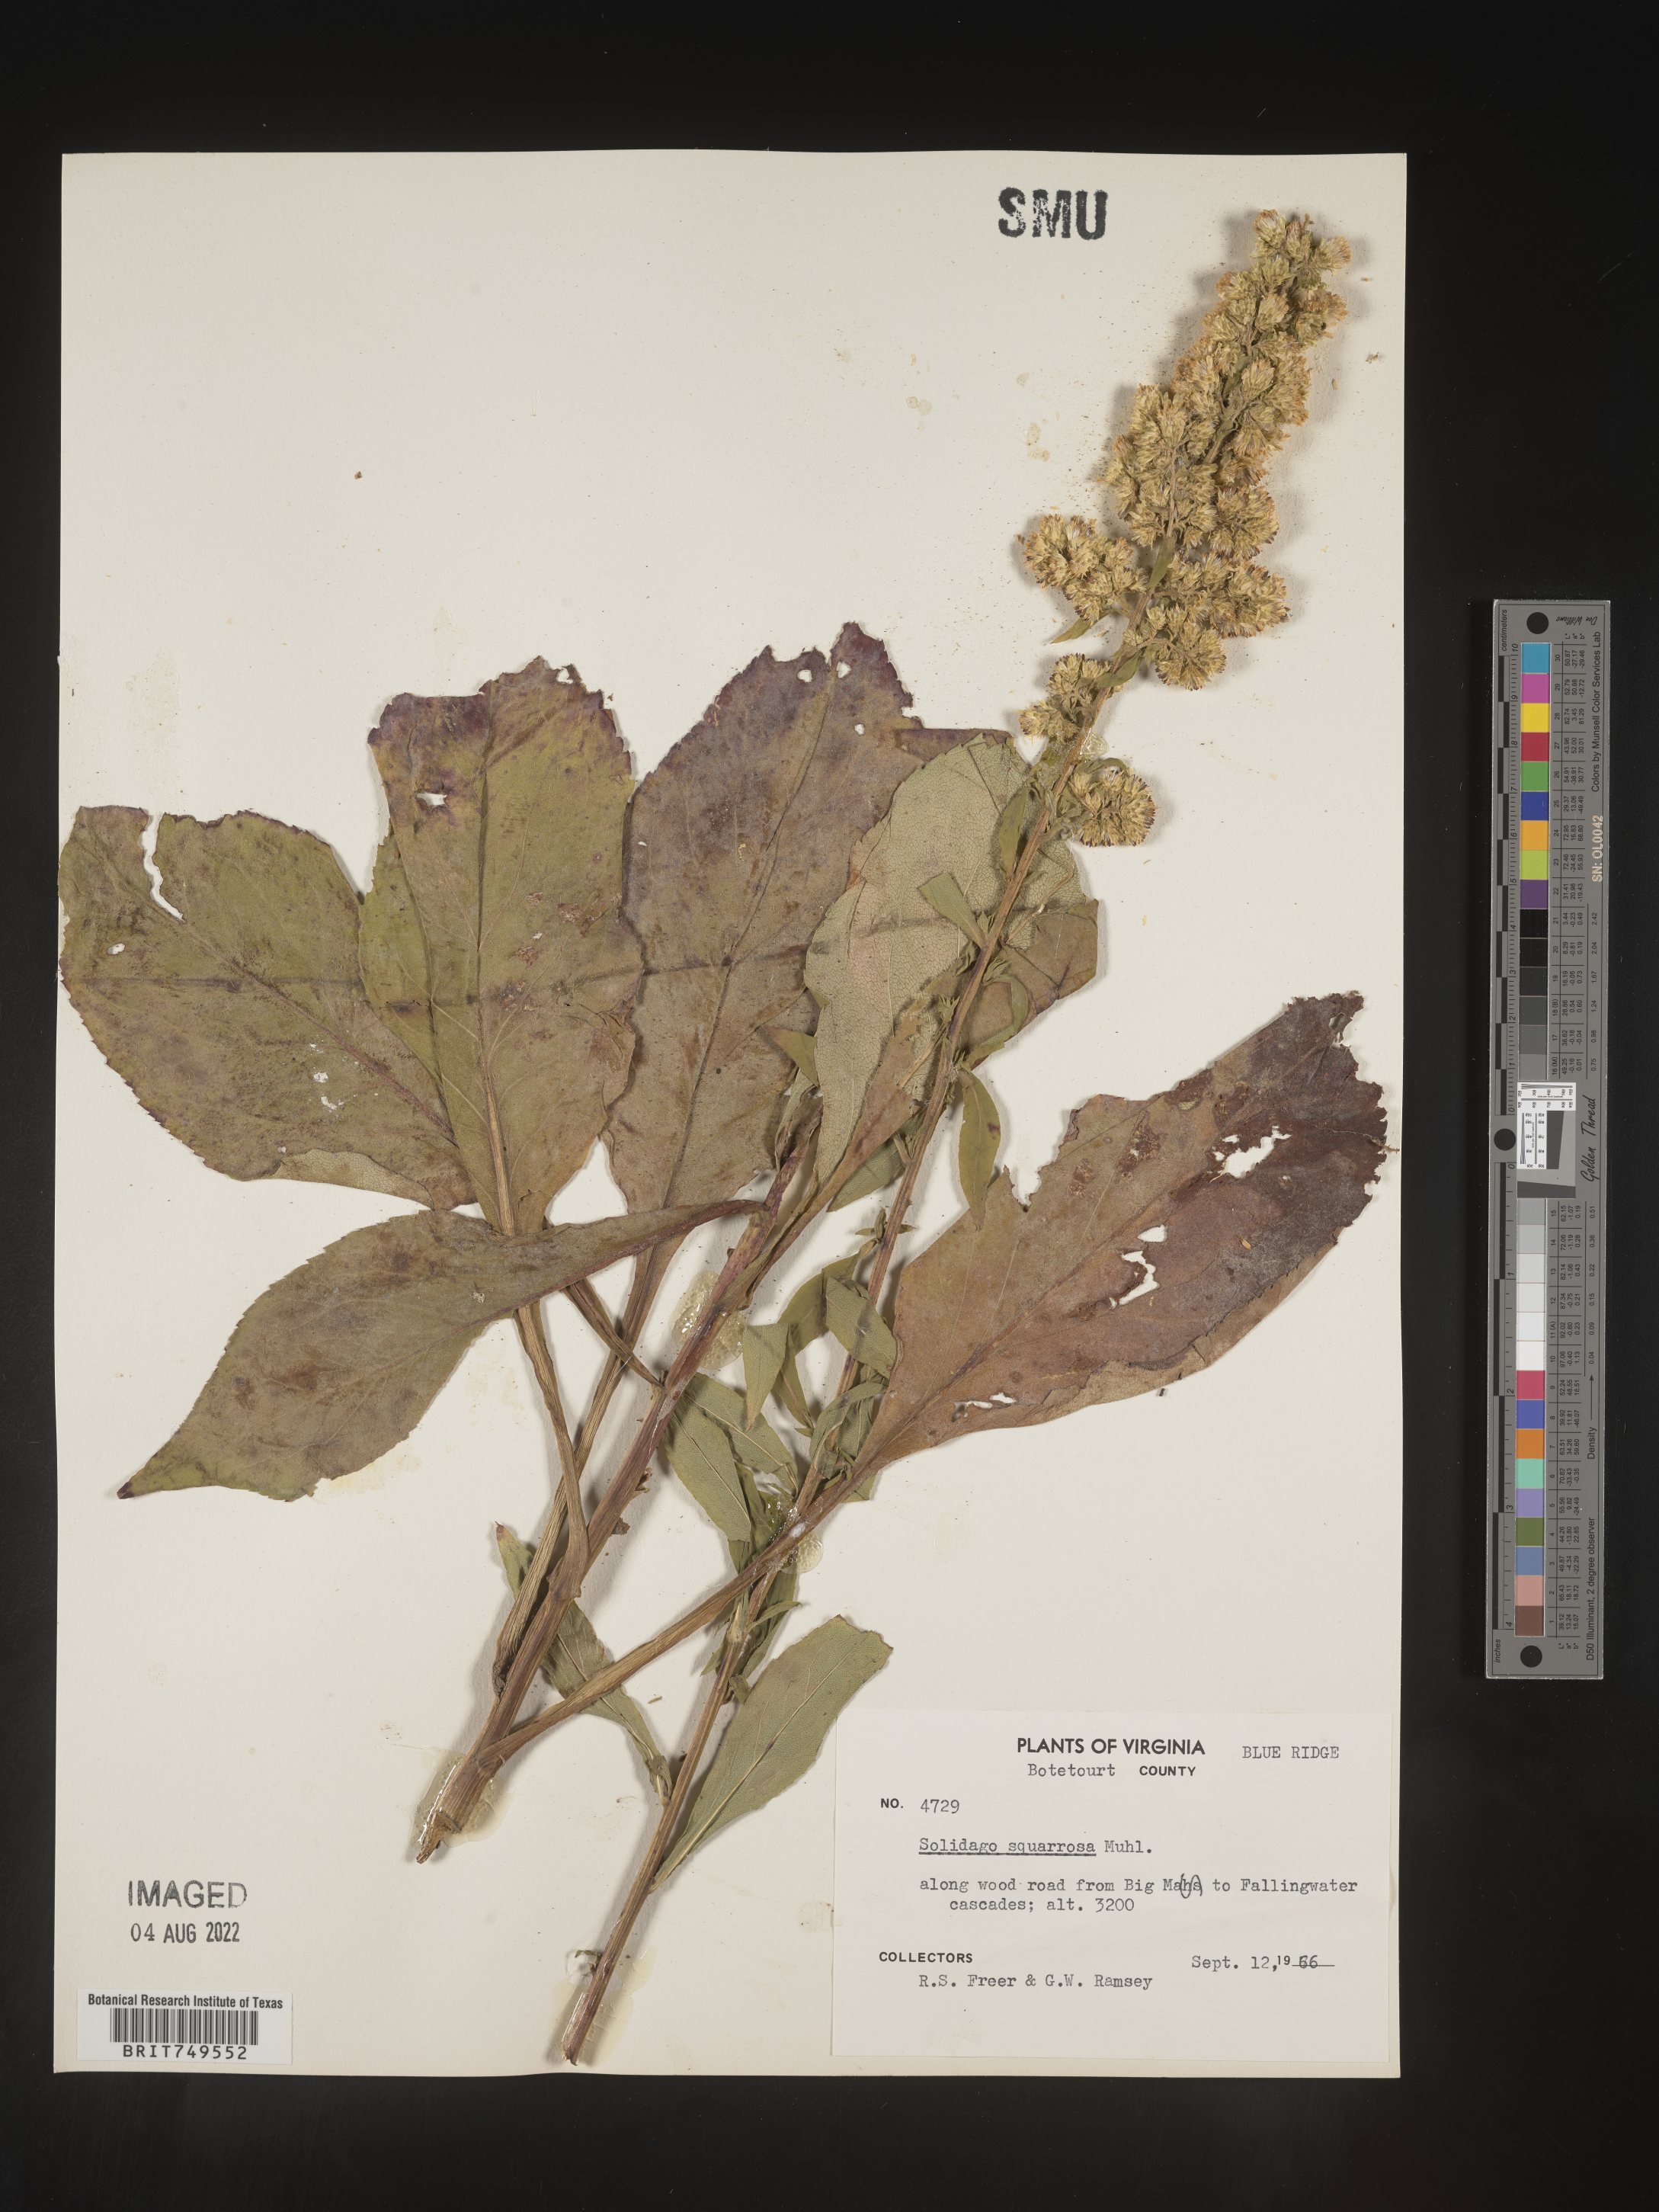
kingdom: Plantae
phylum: Tracheophyta
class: Magnoliopsida
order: Asterales
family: Asteraceae
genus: Solidago
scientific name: Solidago squarrosa
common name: Stout goldenrod
